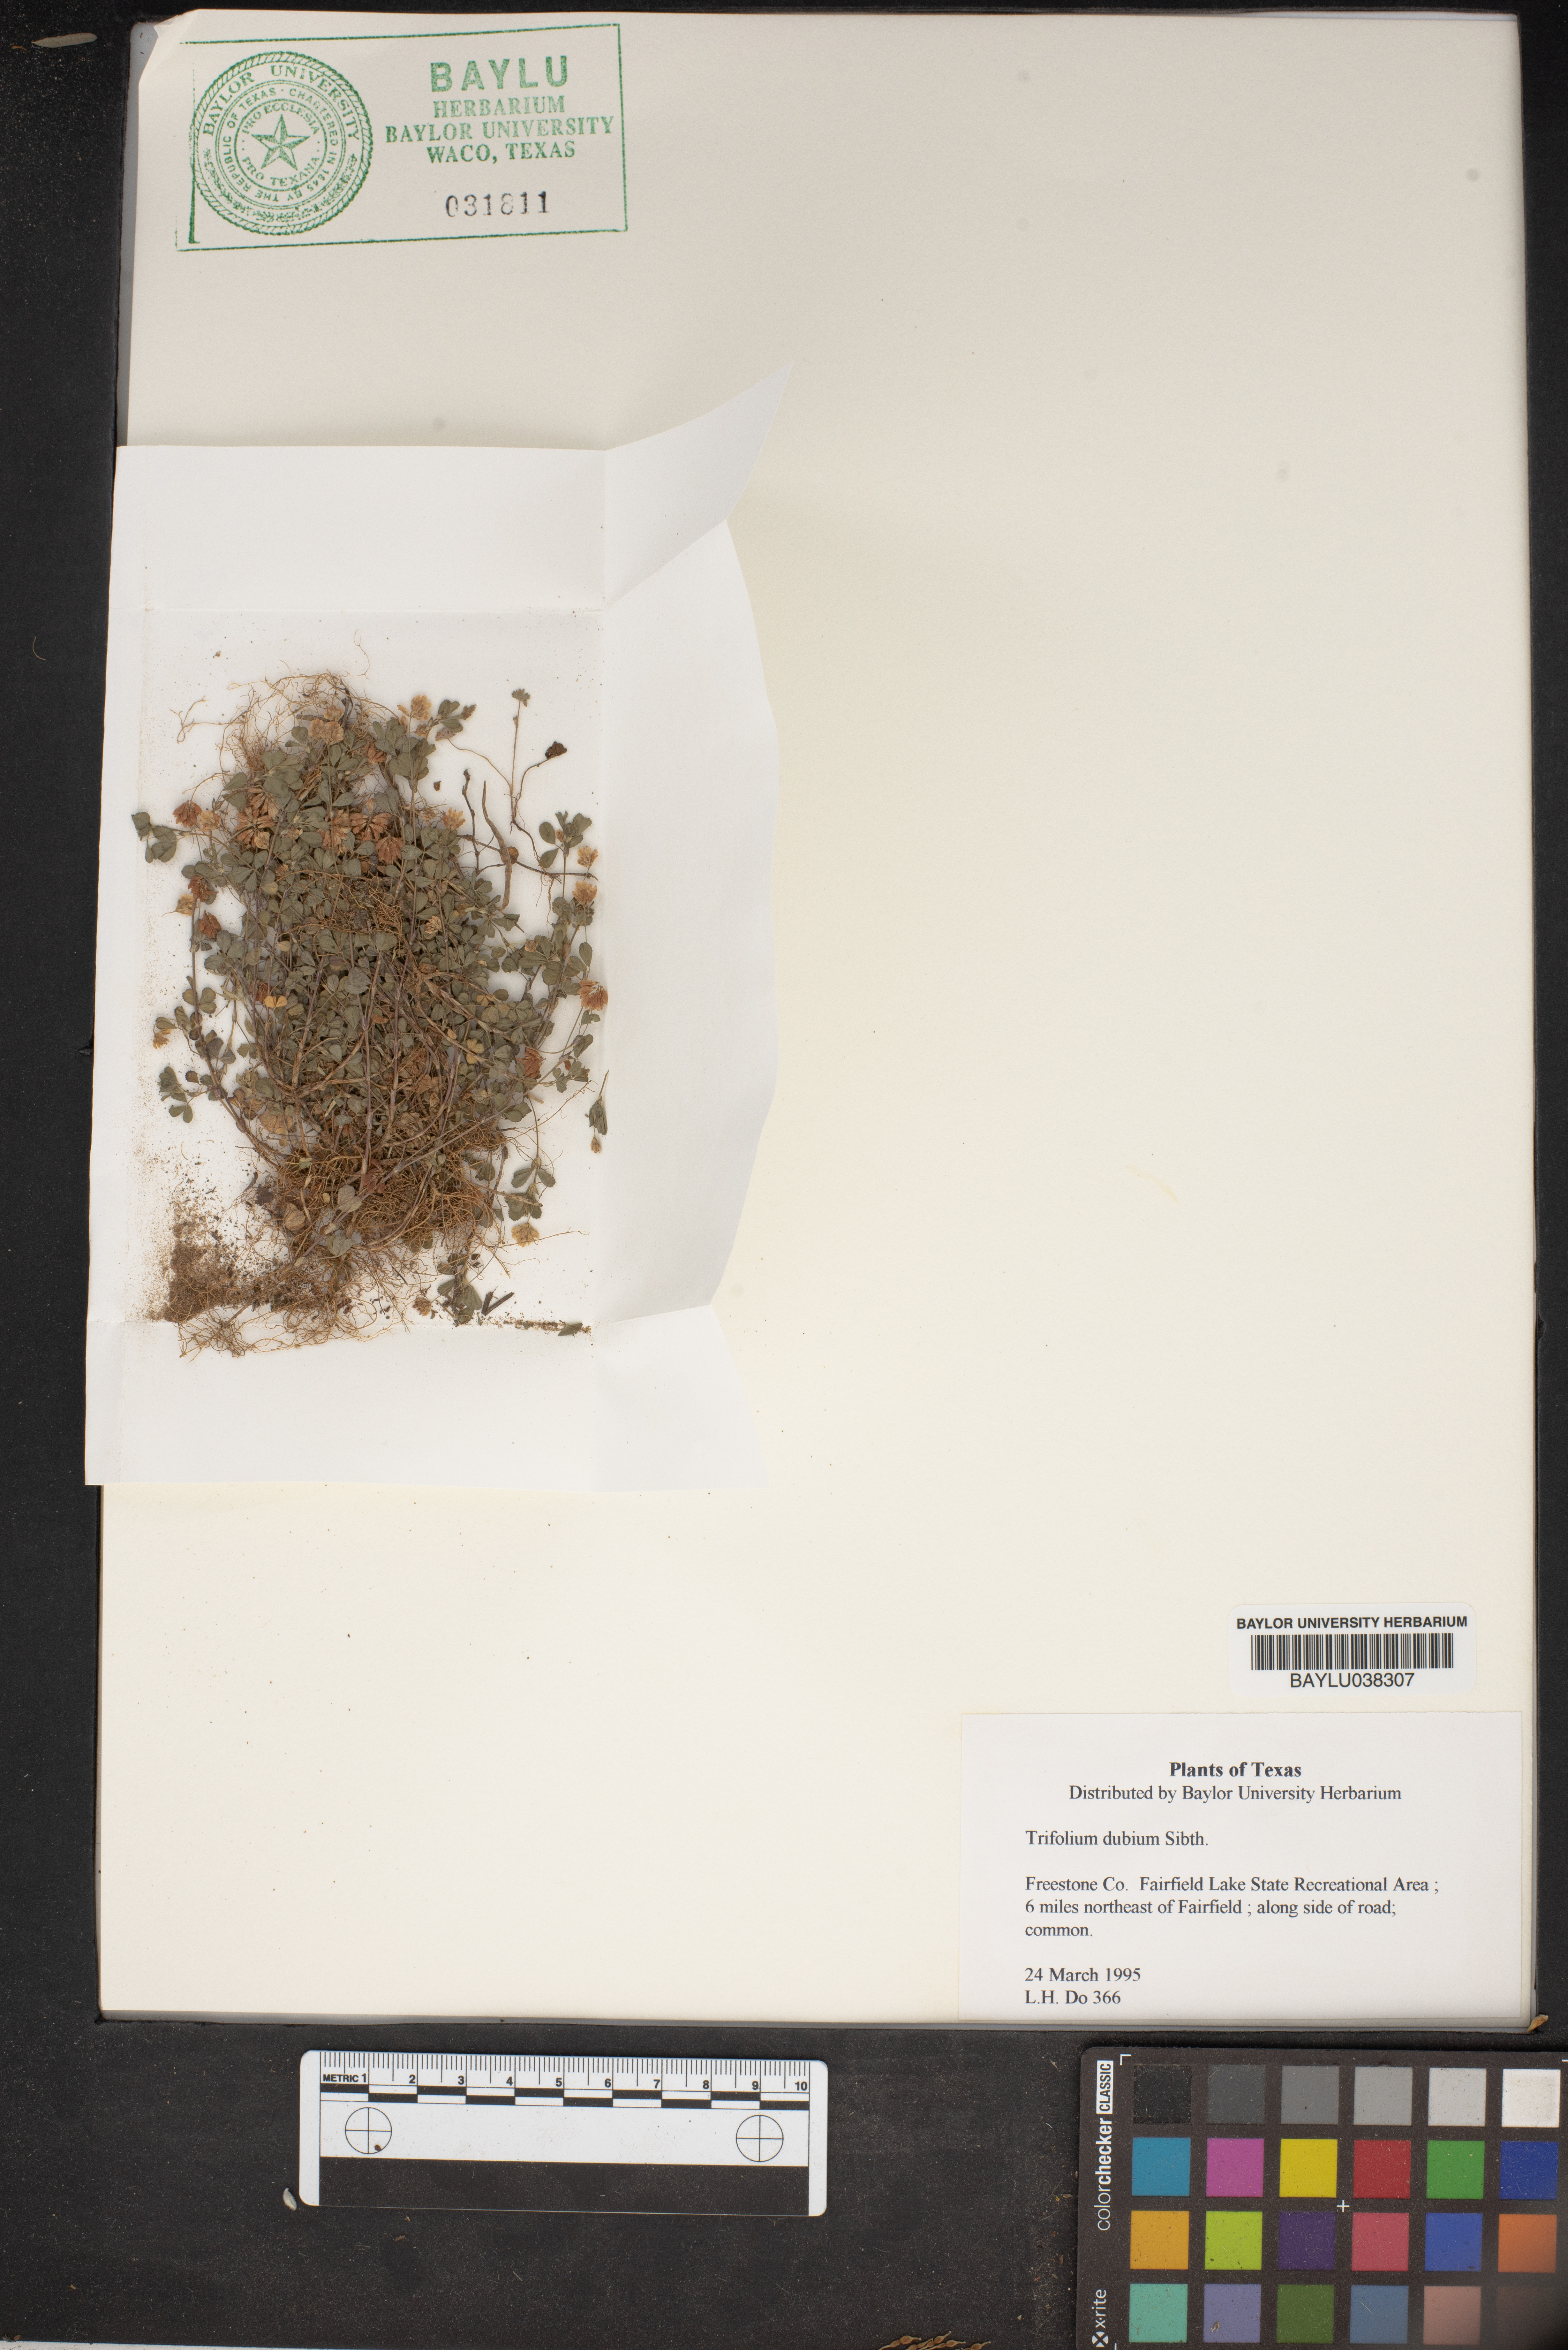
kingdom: Plantae
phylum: Tracheophyta
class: Magnoliopsida
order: Fabales
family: Fabaceae
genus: Trifolium
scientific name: Trifolium dubium
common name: Suckling clover
